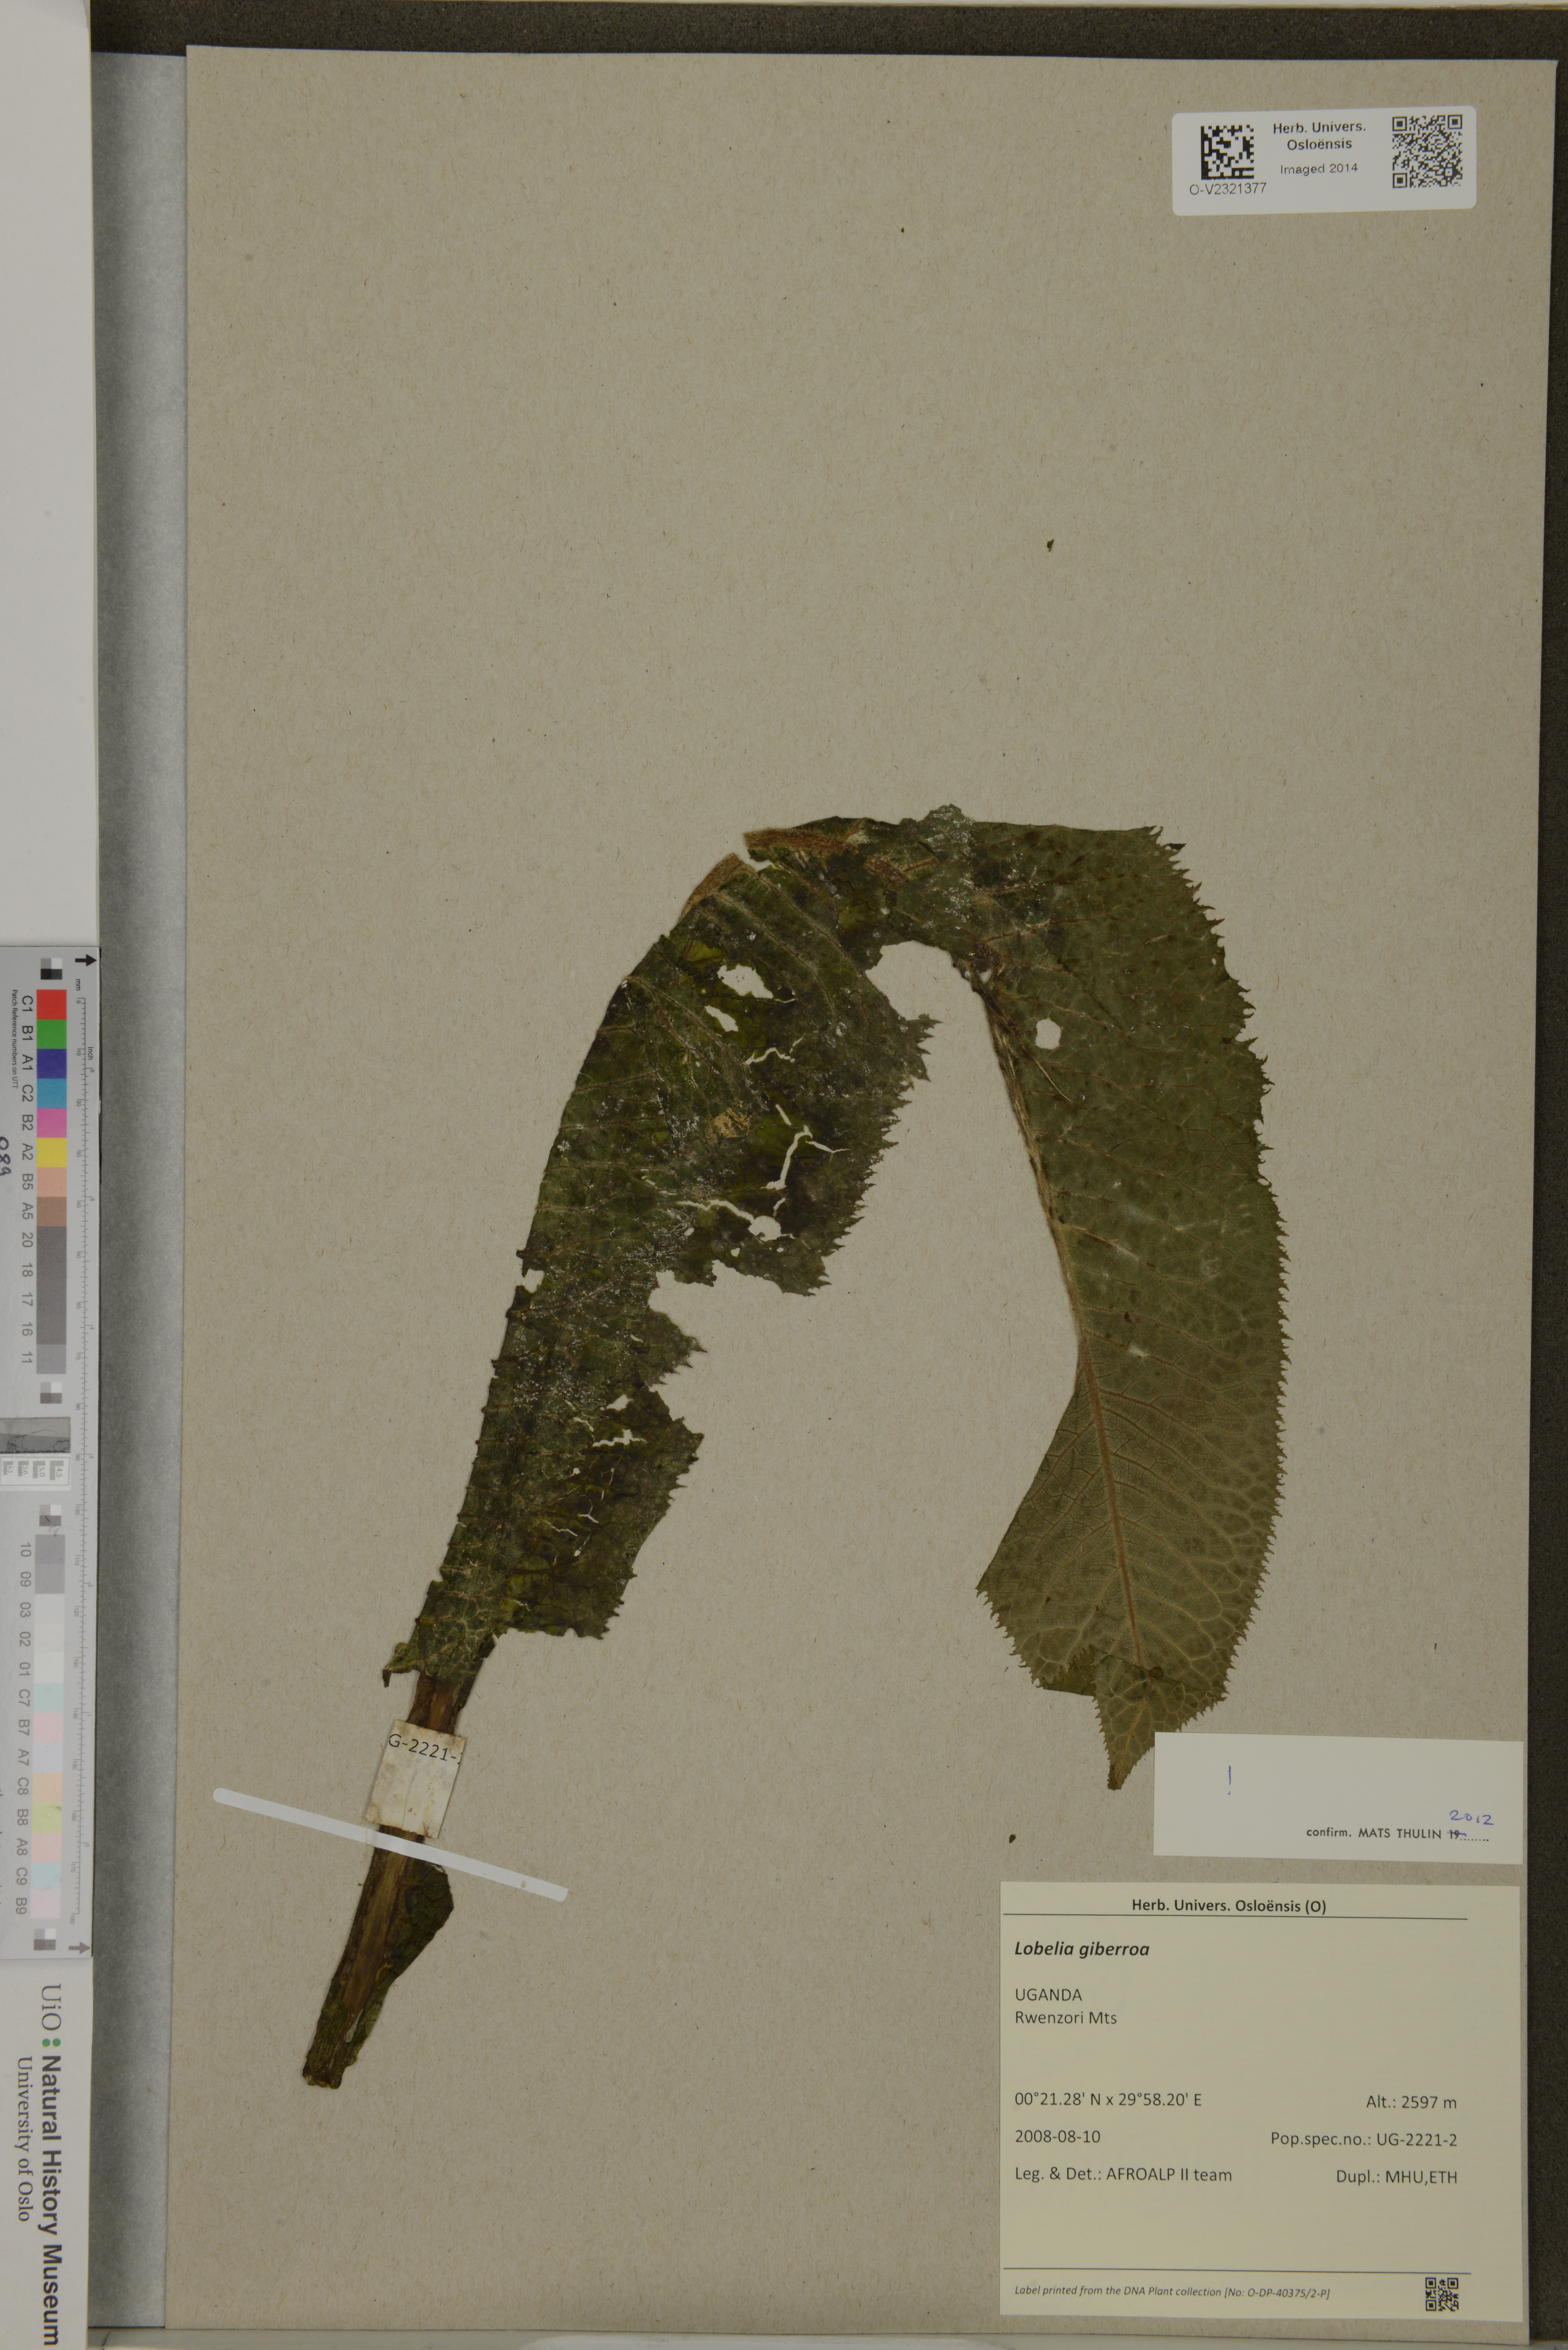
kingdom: Plantae
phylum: Tracheophyta
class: Magnoliopsida
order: Asterales
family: Campanulaceae
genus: Lobelia
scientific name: Lobelia giberroa
